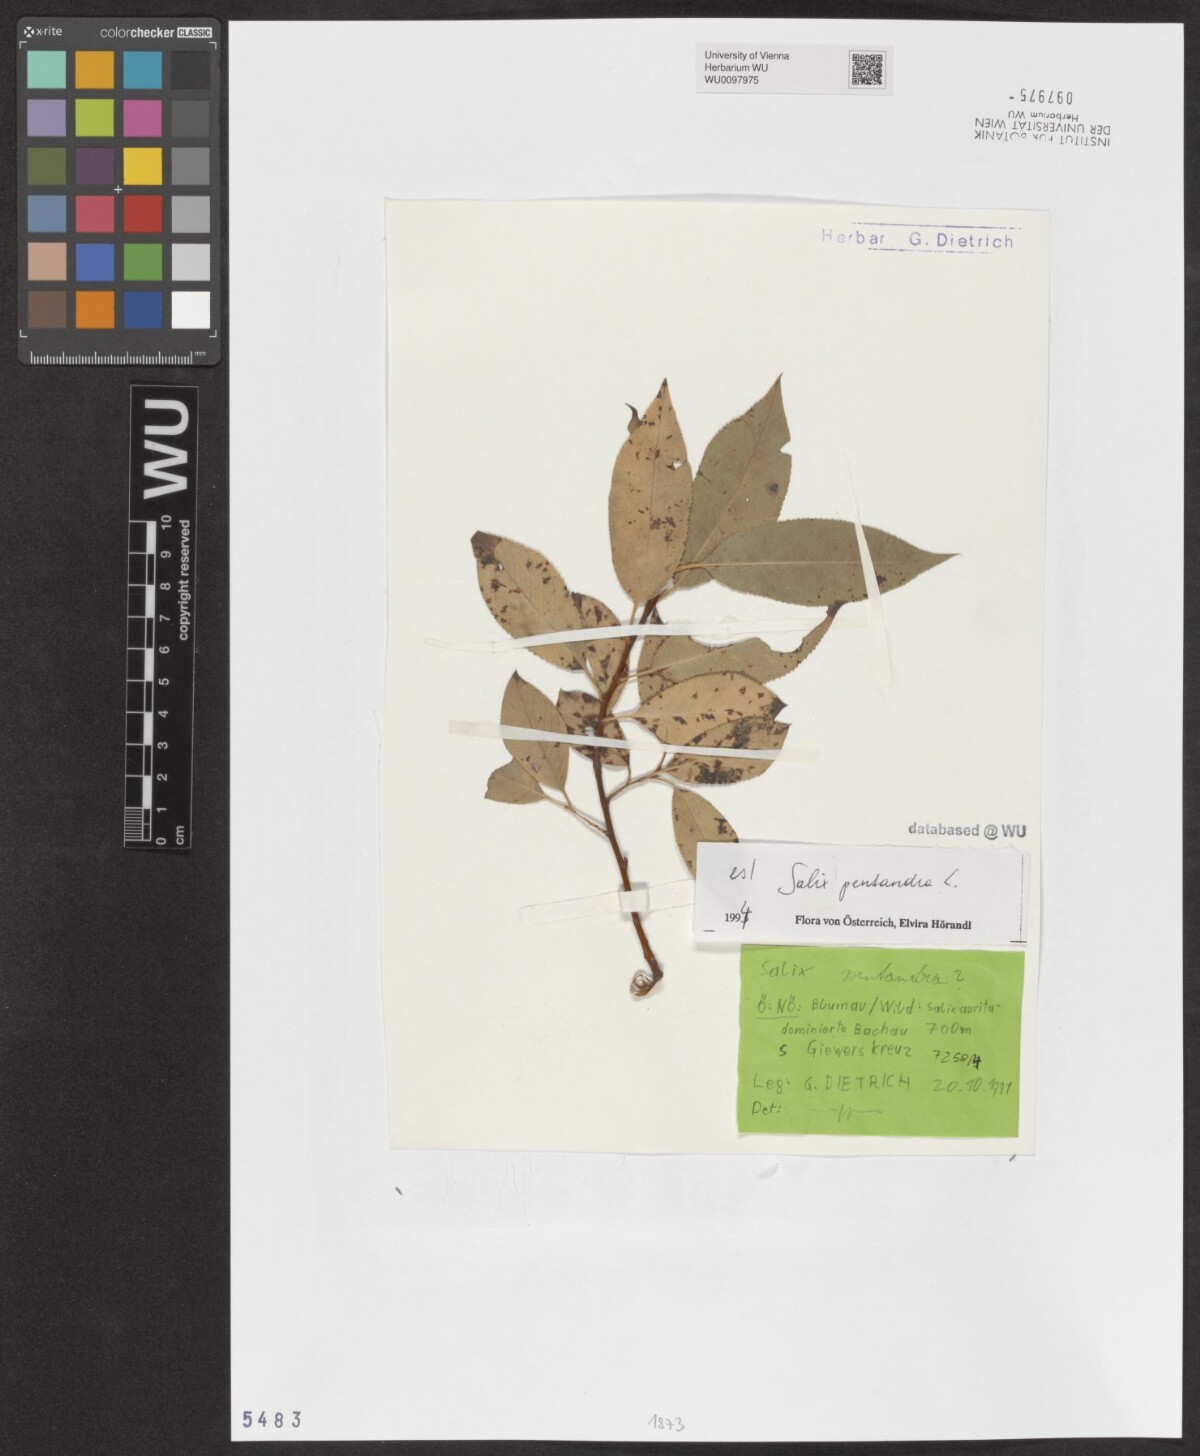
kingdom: Plantae
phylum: Tracheophyta
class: Magnoliopsida
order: Malpighiales
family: Salicaceae
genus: Salix
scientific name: Salix pentandra
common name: Bay willow
